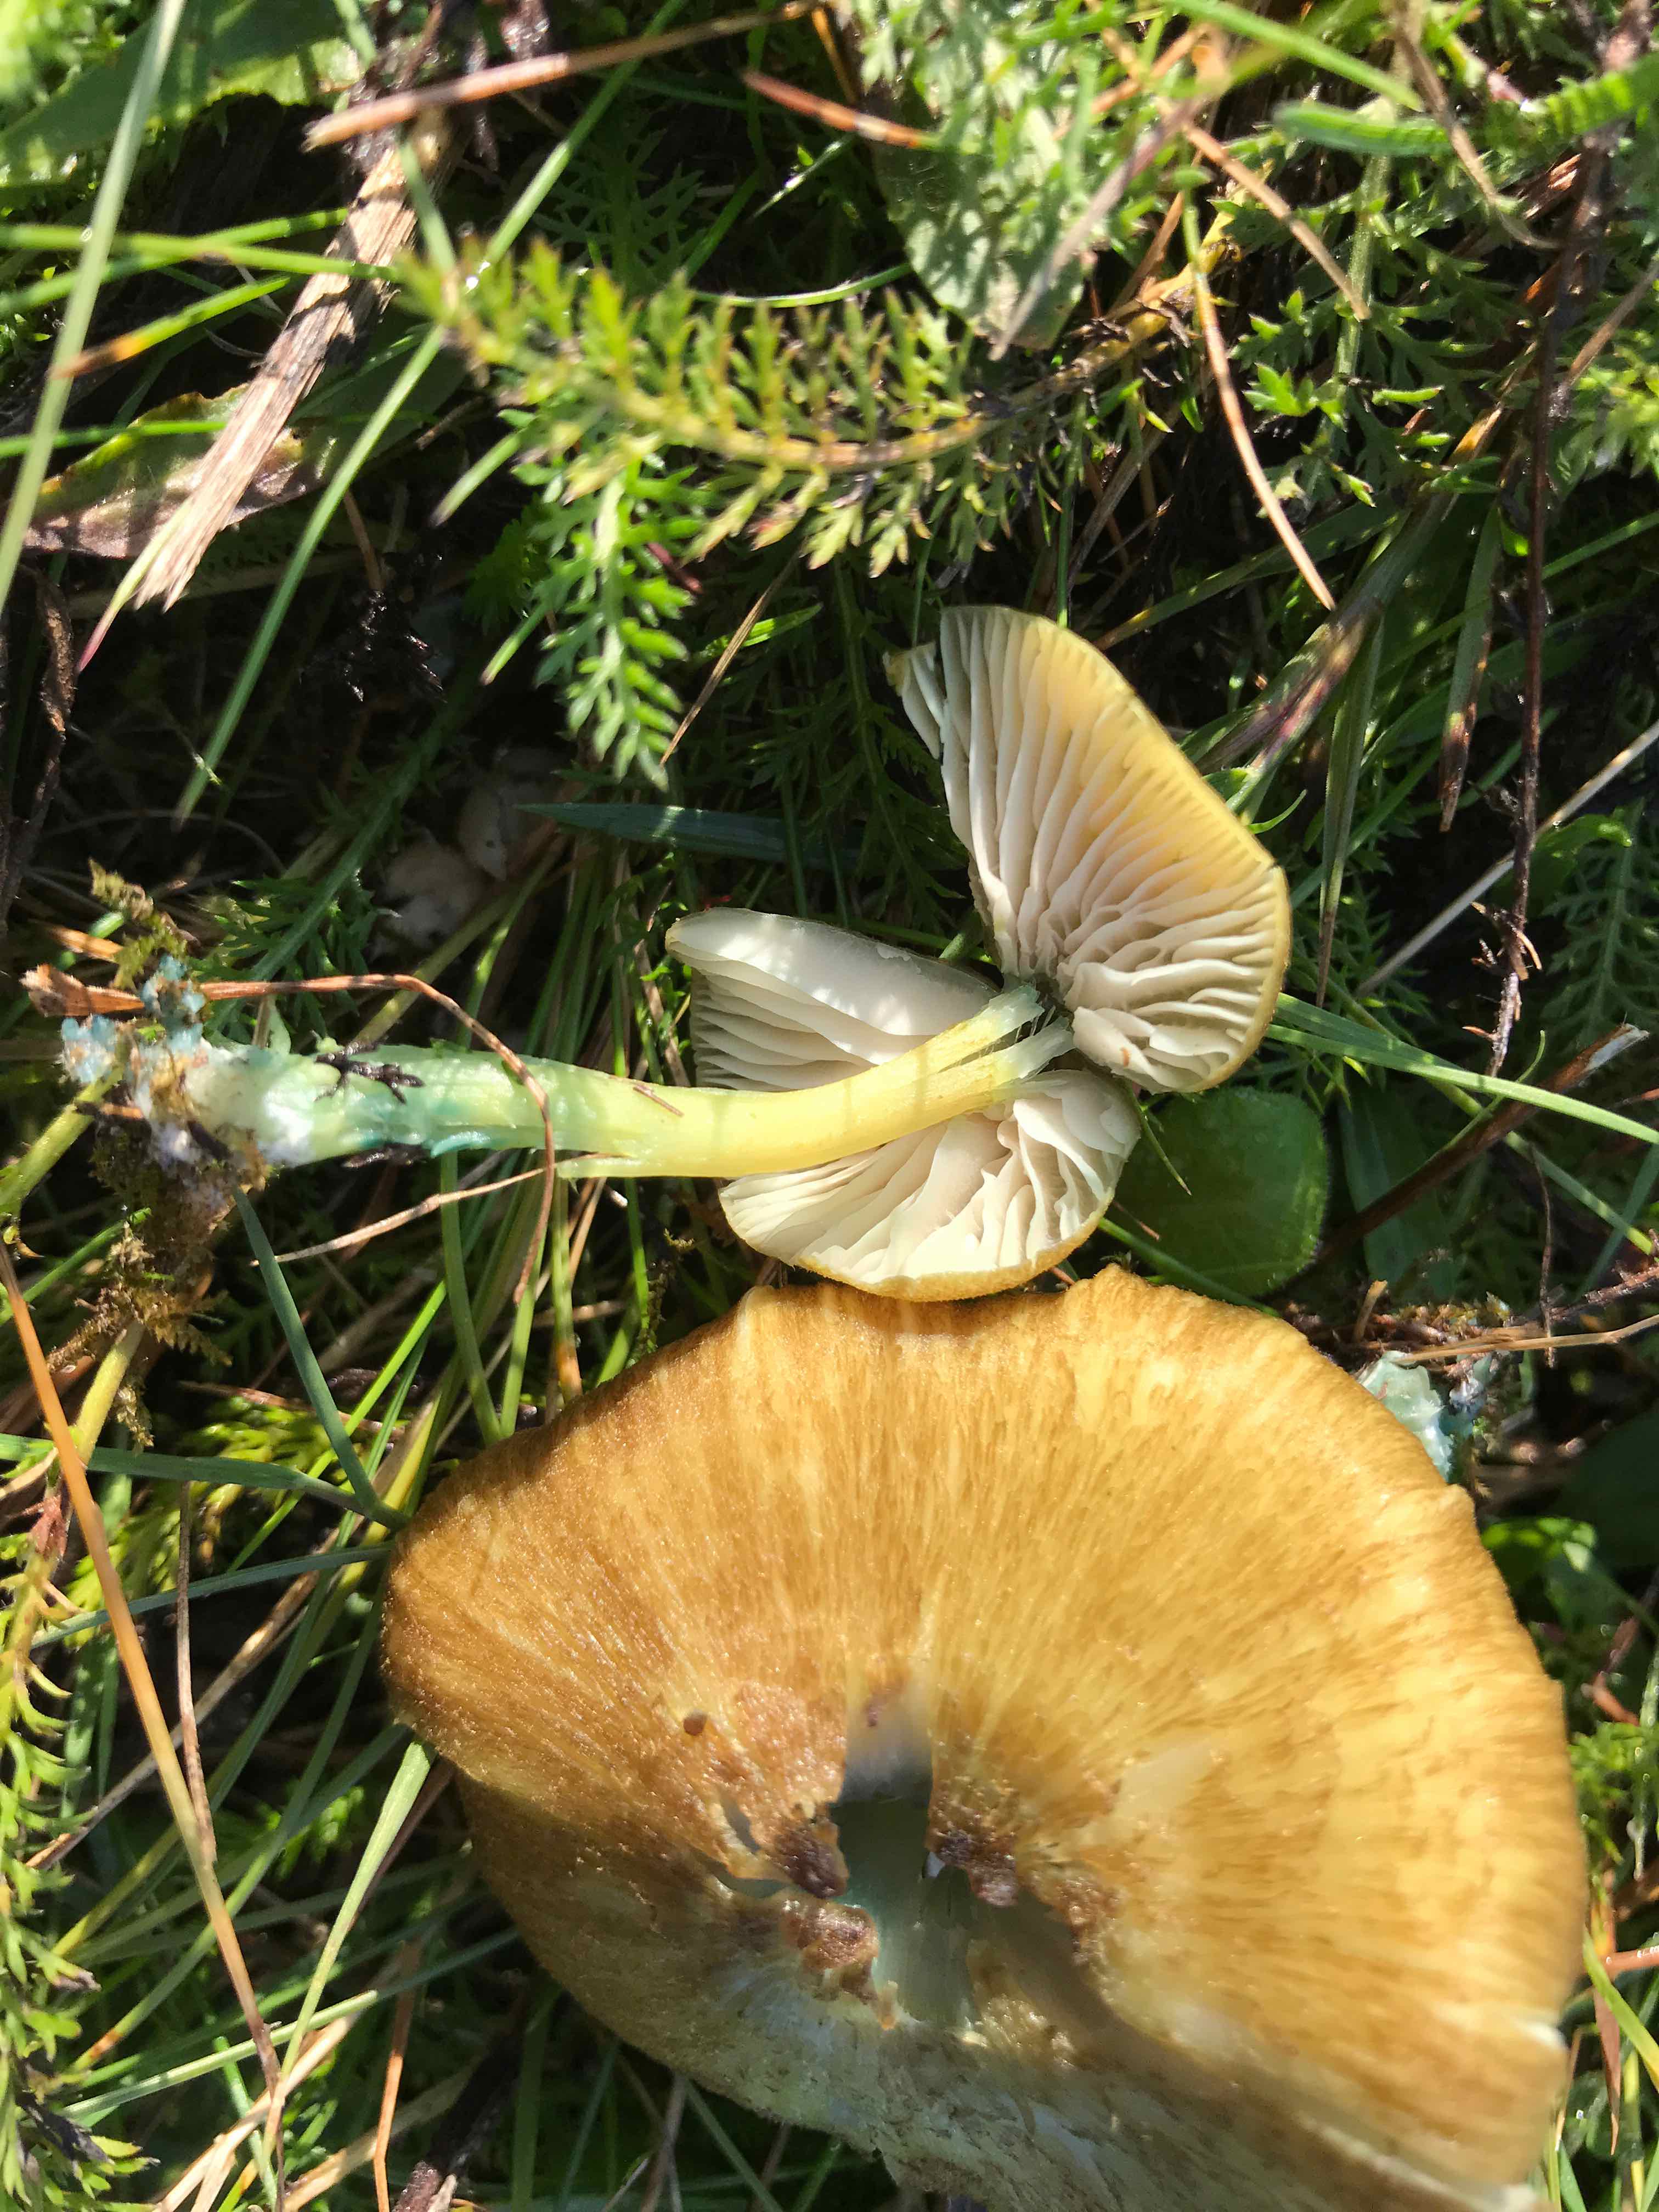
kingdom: Fungi
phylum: Basidiomycota
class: Agaricomycetes
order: Agaricales
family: Entolomataceae
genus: Entoloma
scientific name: Entoloma incanum
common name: grøngul rødblad
